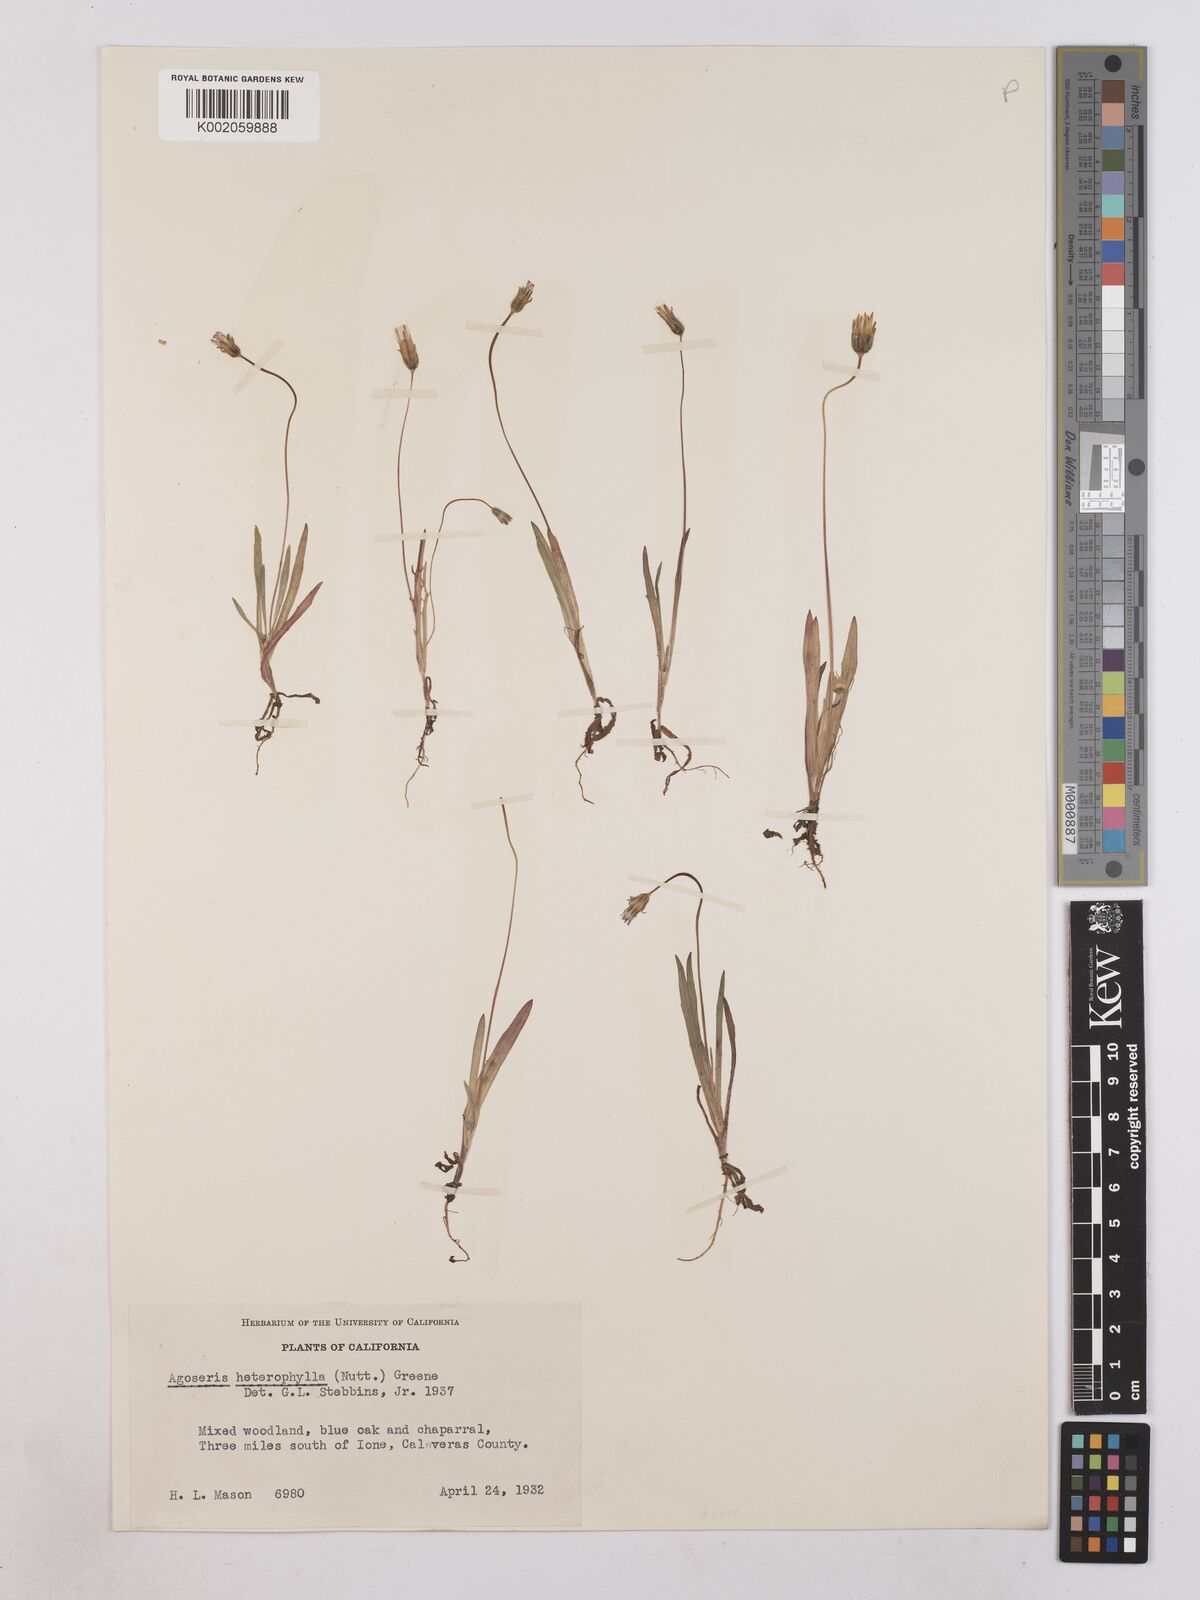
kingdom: Plantae
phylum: Tracheophyta
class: Magnoliopsida
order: Asterales
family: Asteraceae
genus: Agoseris
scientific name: Agoseris heterophylla
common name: Annual agoseris
